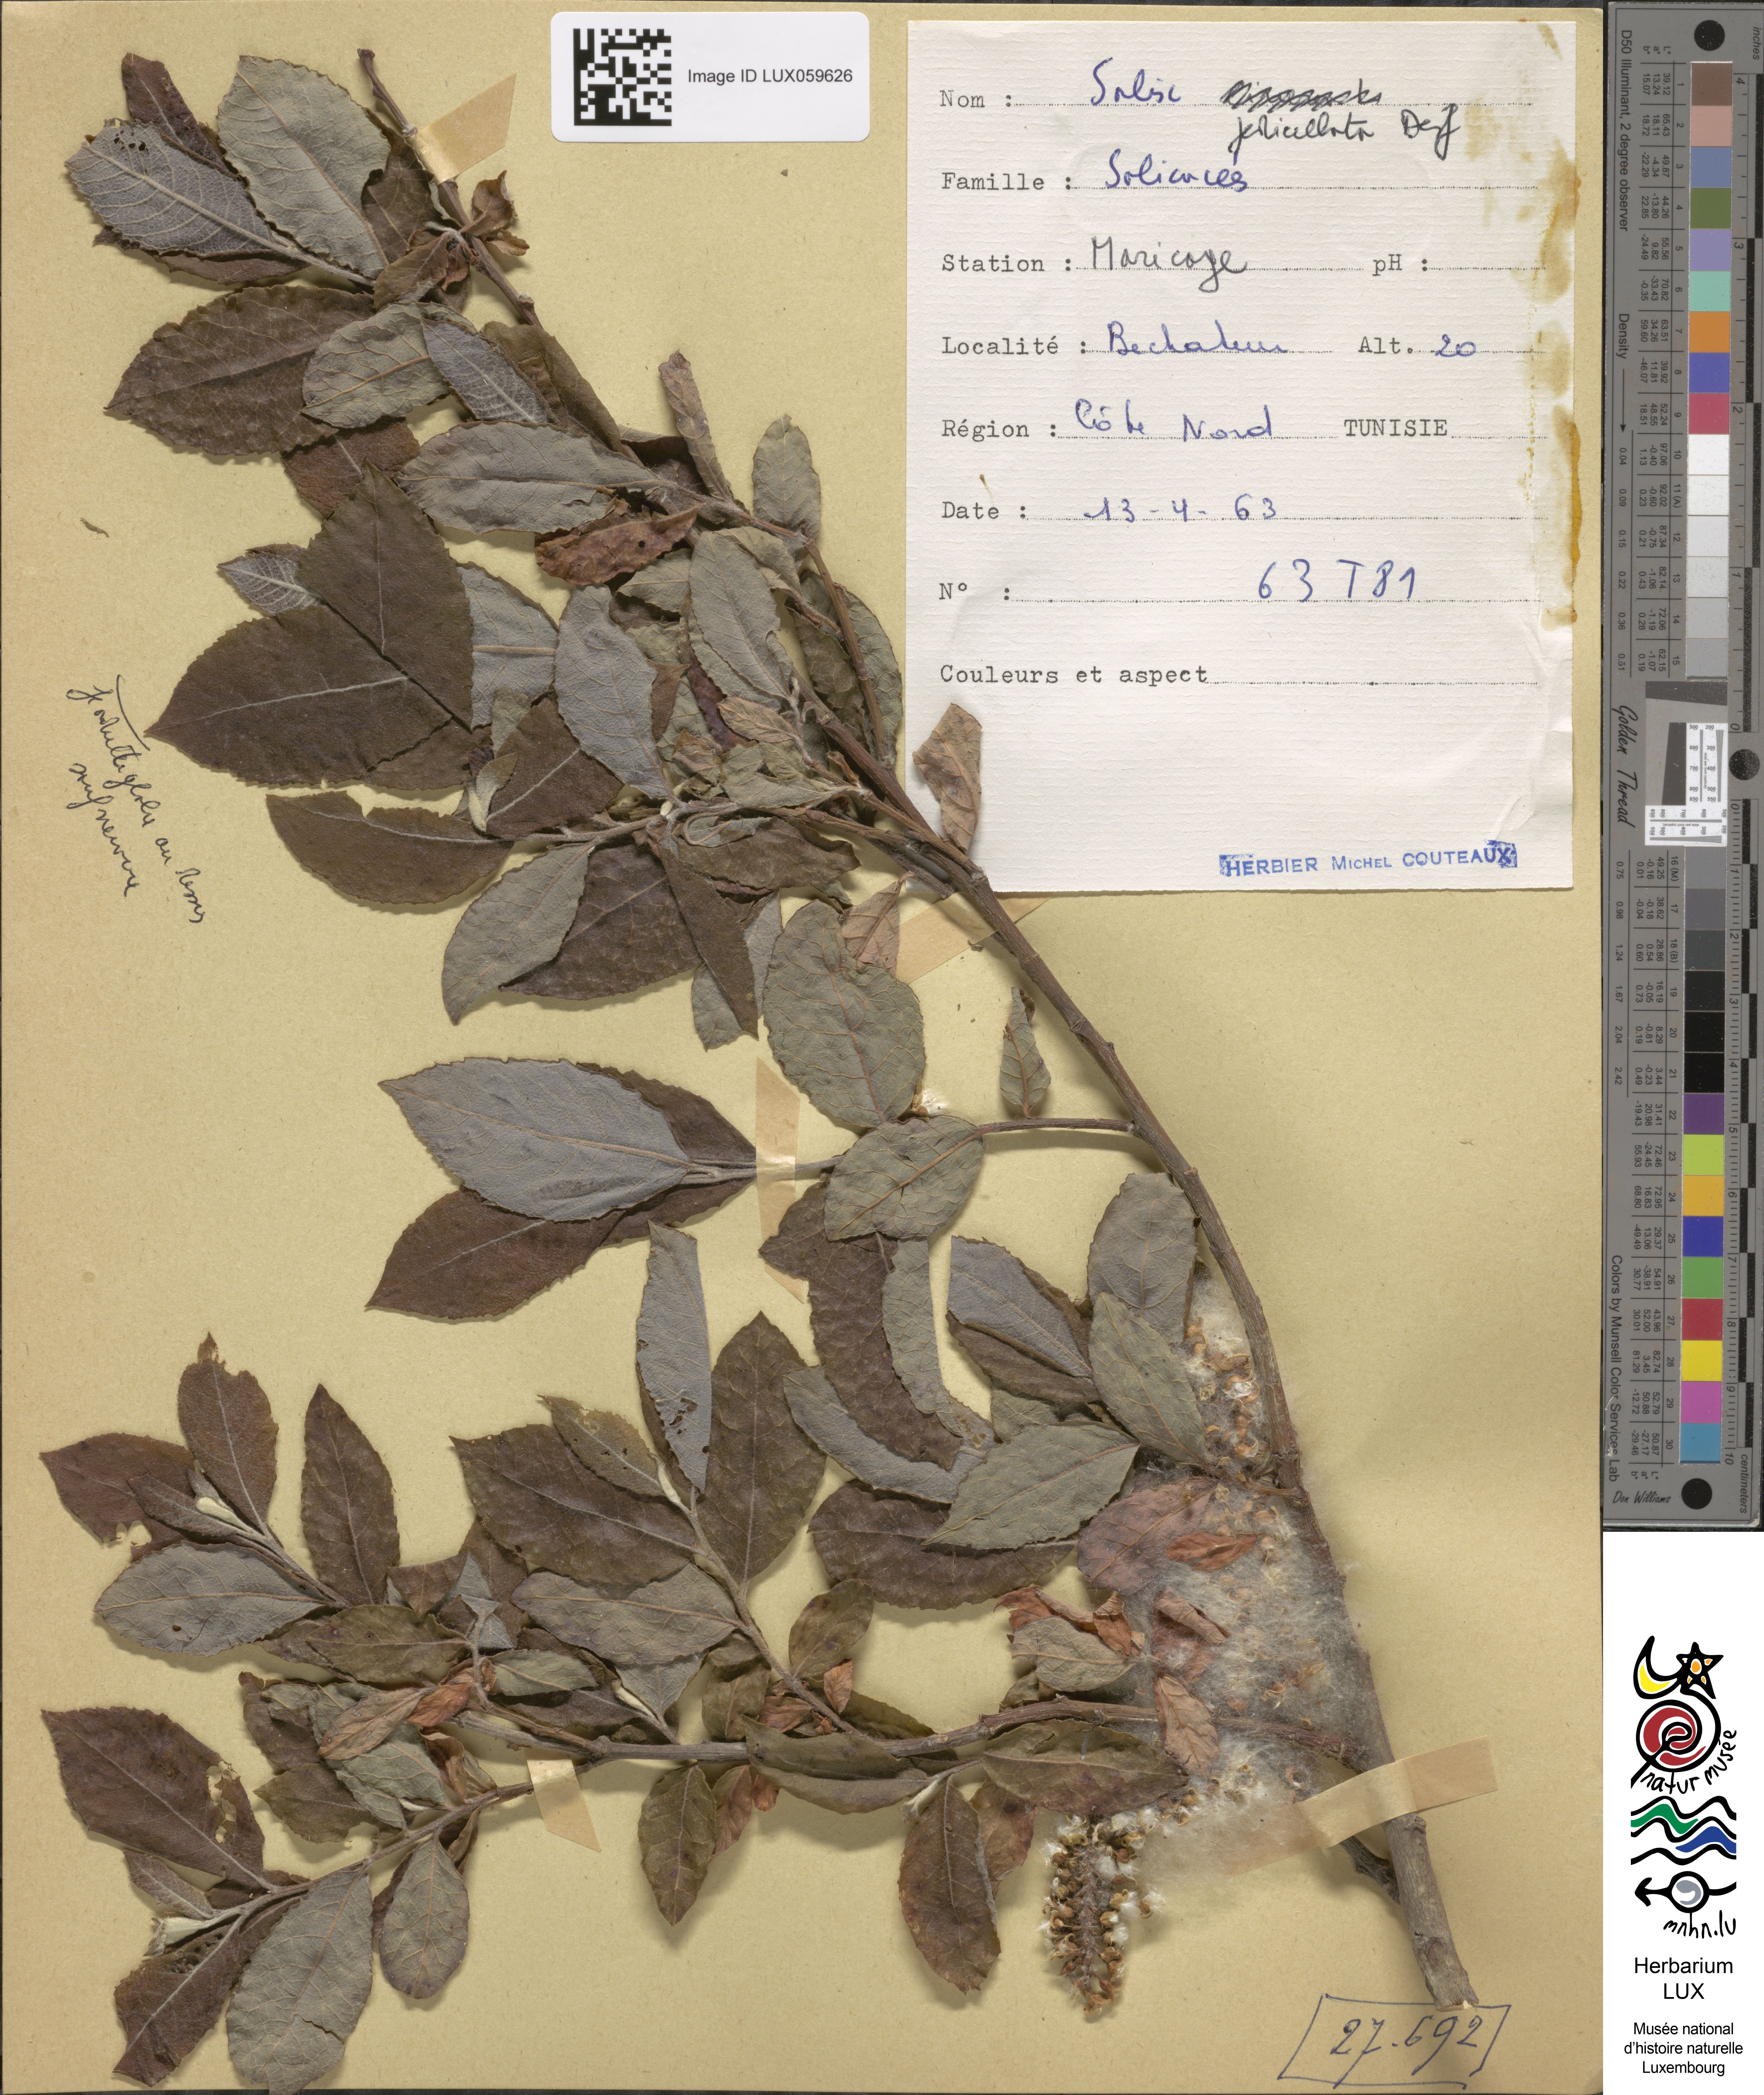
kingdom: Plantae
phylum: Tracheophyta
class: Magnoliopsida
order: Malpighiales
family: Salicaceae
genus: Salix
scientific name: Salix pedicellata
